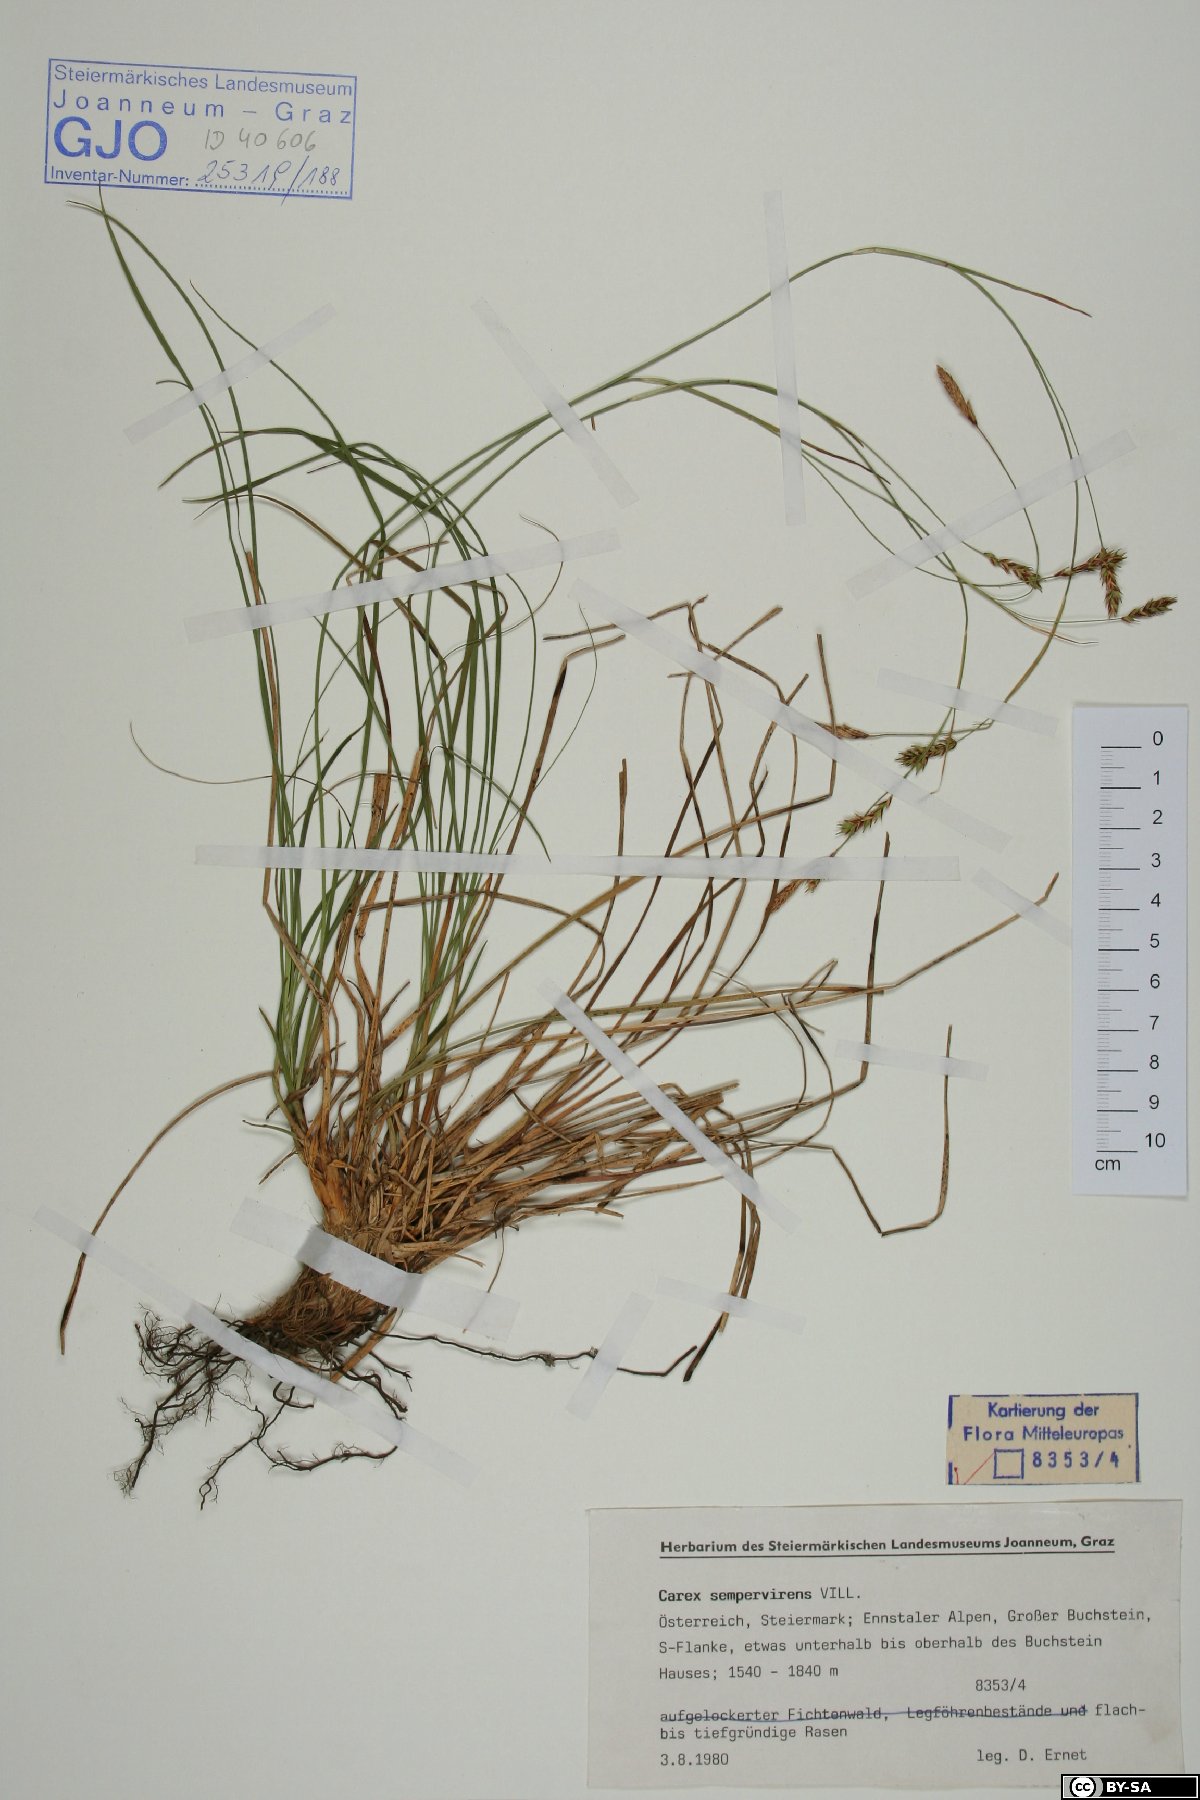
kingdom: Plantae
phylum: Tracheophyta
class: Liliopsida
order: Poales
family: Cyperaceae
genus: Carex
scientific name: Carex sempervirens
